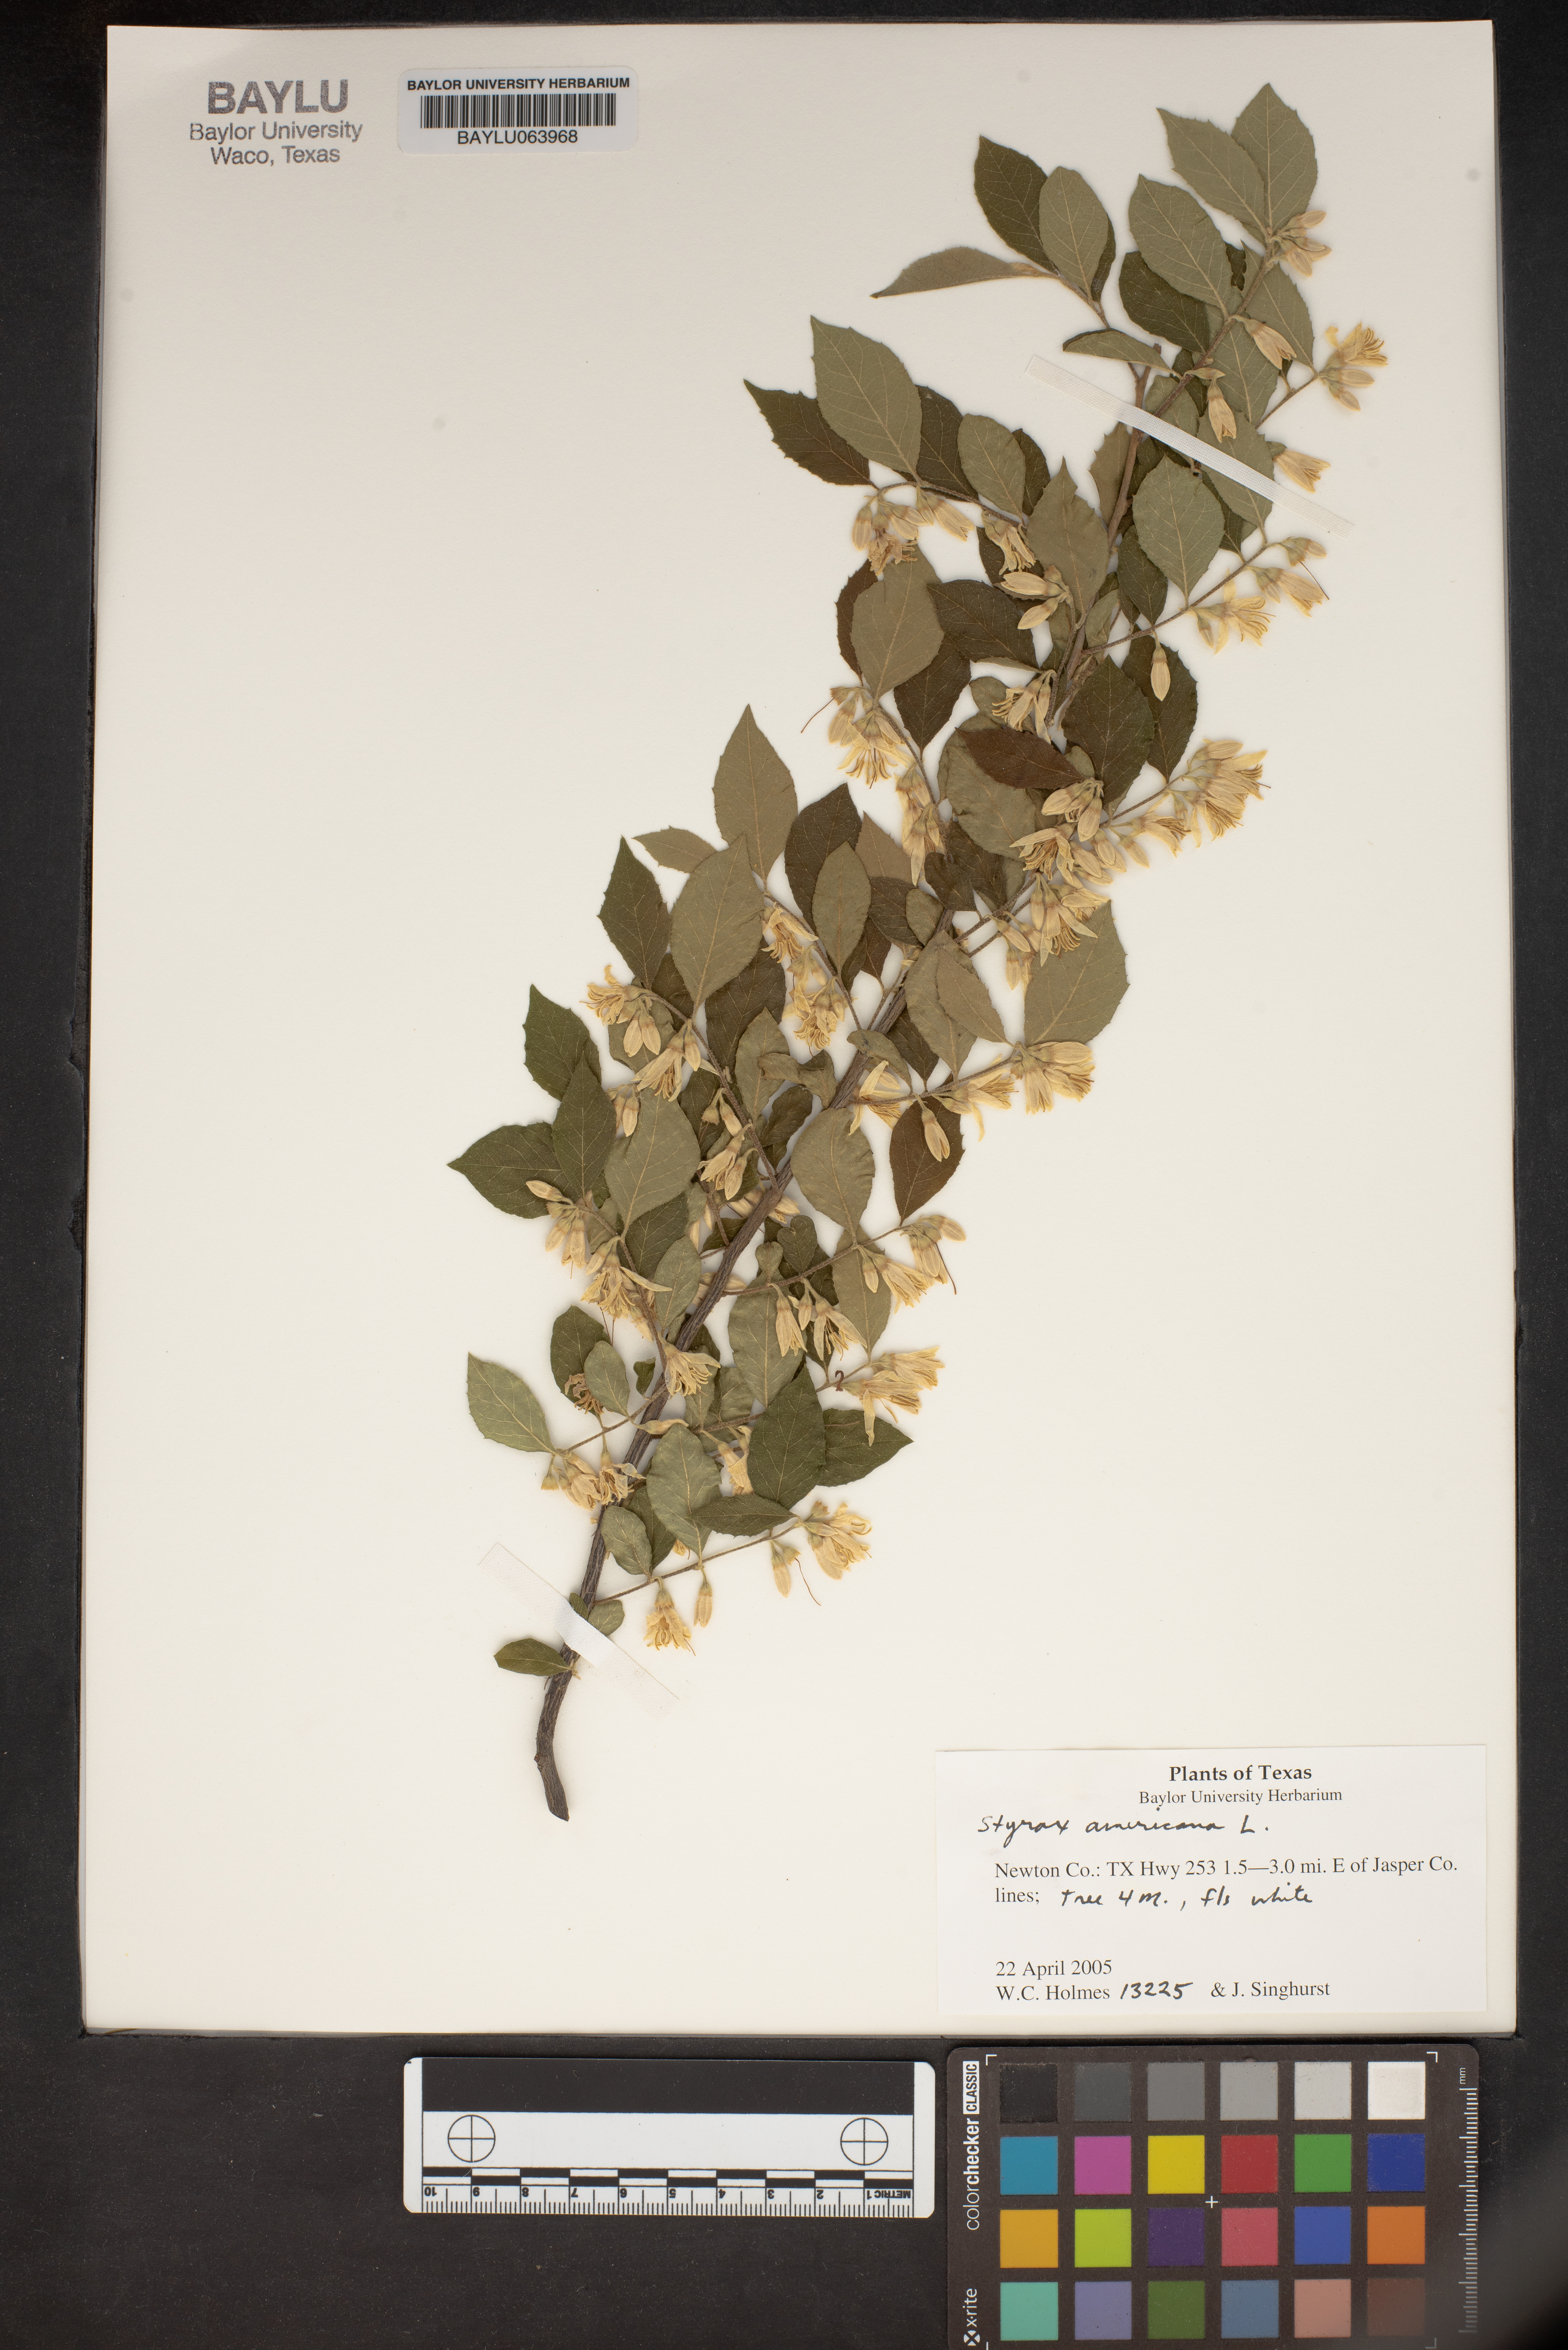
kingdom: Plantae
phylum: Tracheophyta
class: Magnoliopsida
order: Ericales
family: Styracaceae
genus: Styrax
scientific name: Styrax americanus
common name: American snowbell
